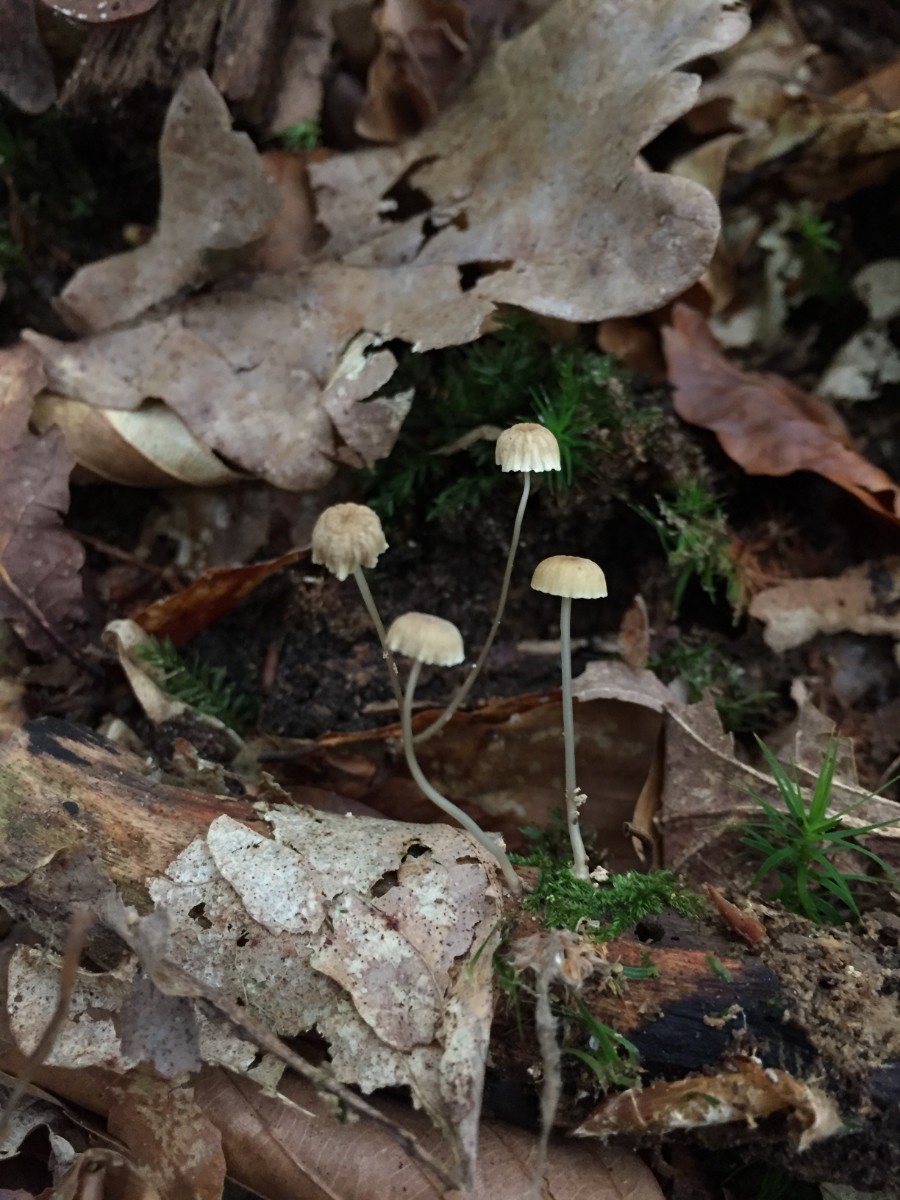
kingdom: Fungi
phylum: Basidiomycota
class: Agaricomycetes
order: Agaricales
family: Mycenaceae
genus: Roridomyces
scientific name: Roridomyces roridus
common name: slimfod
